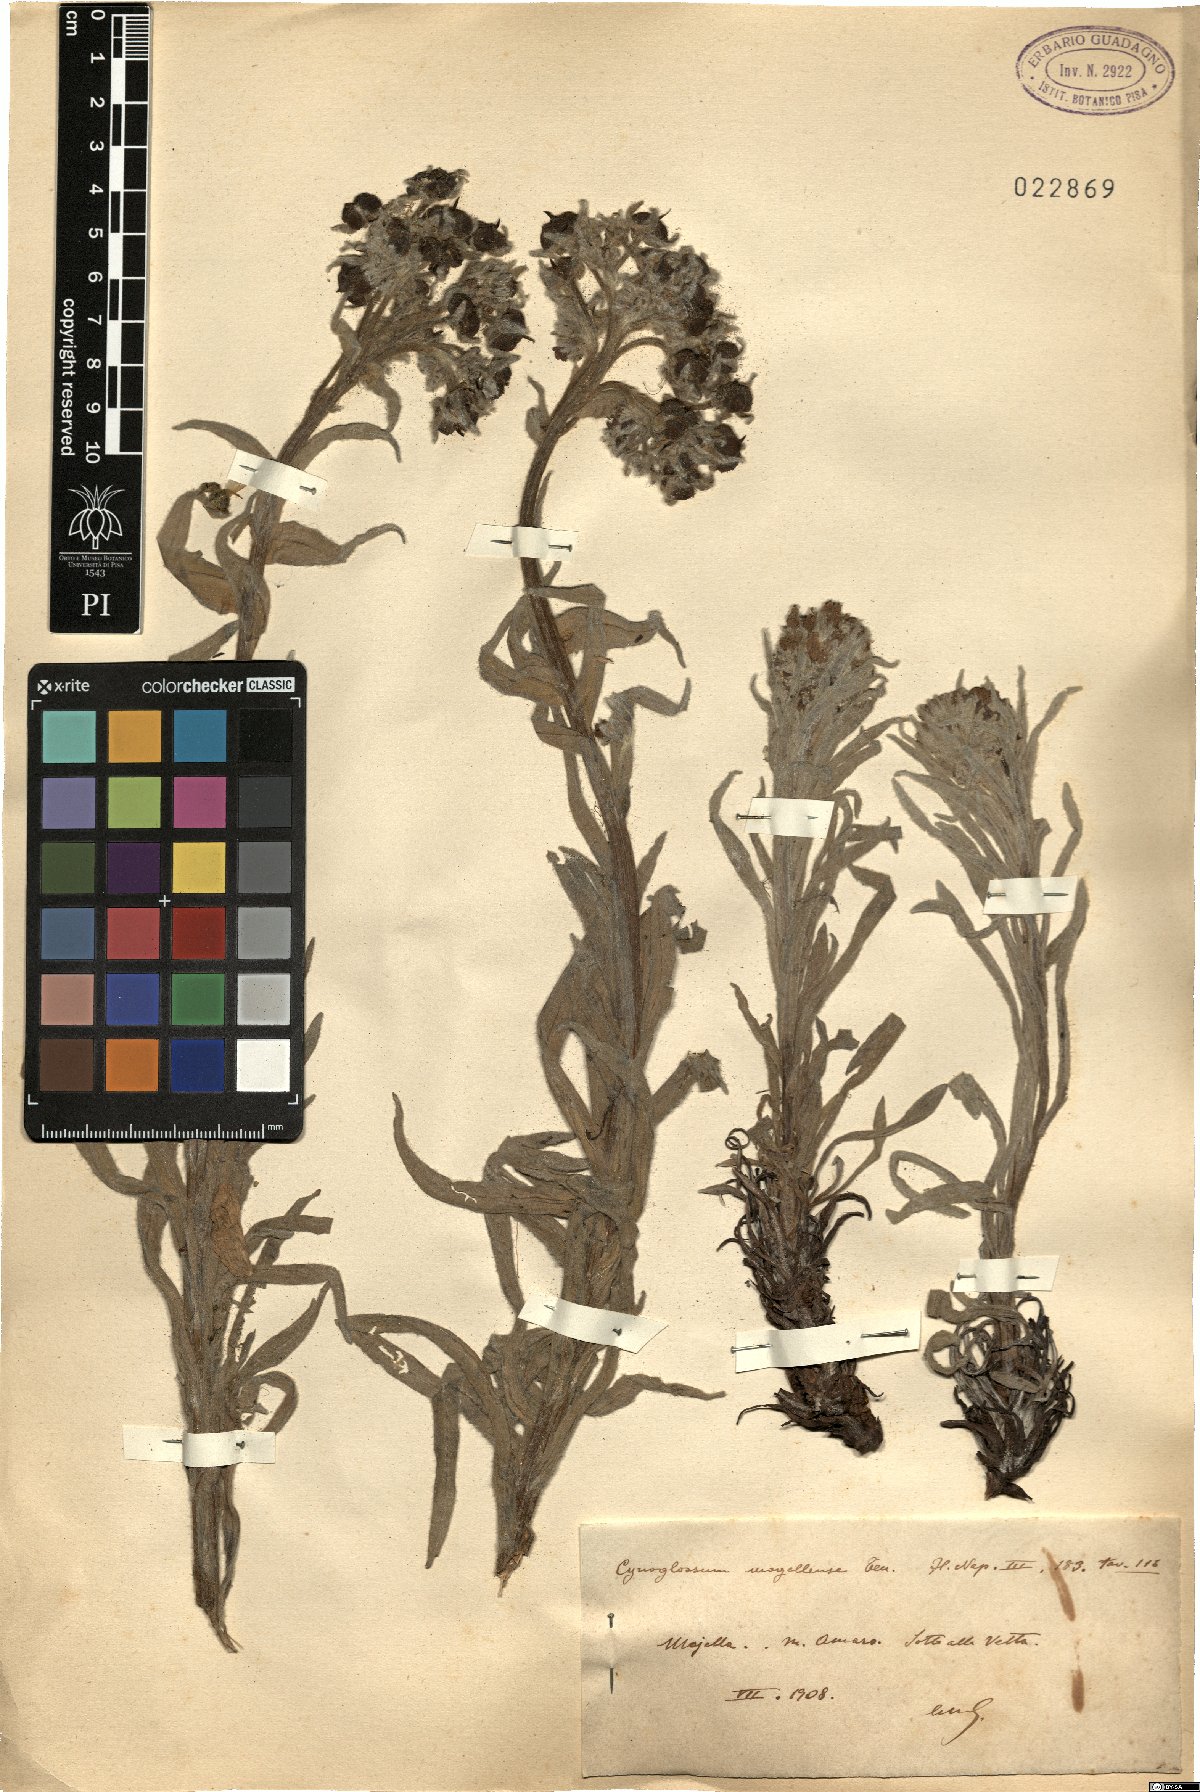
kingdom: Plantae
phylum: Tracheophyta
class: Magnoliopsida
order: Boraginales
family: Boraginaceae
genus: Rindera
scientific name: Rindera magellensis
